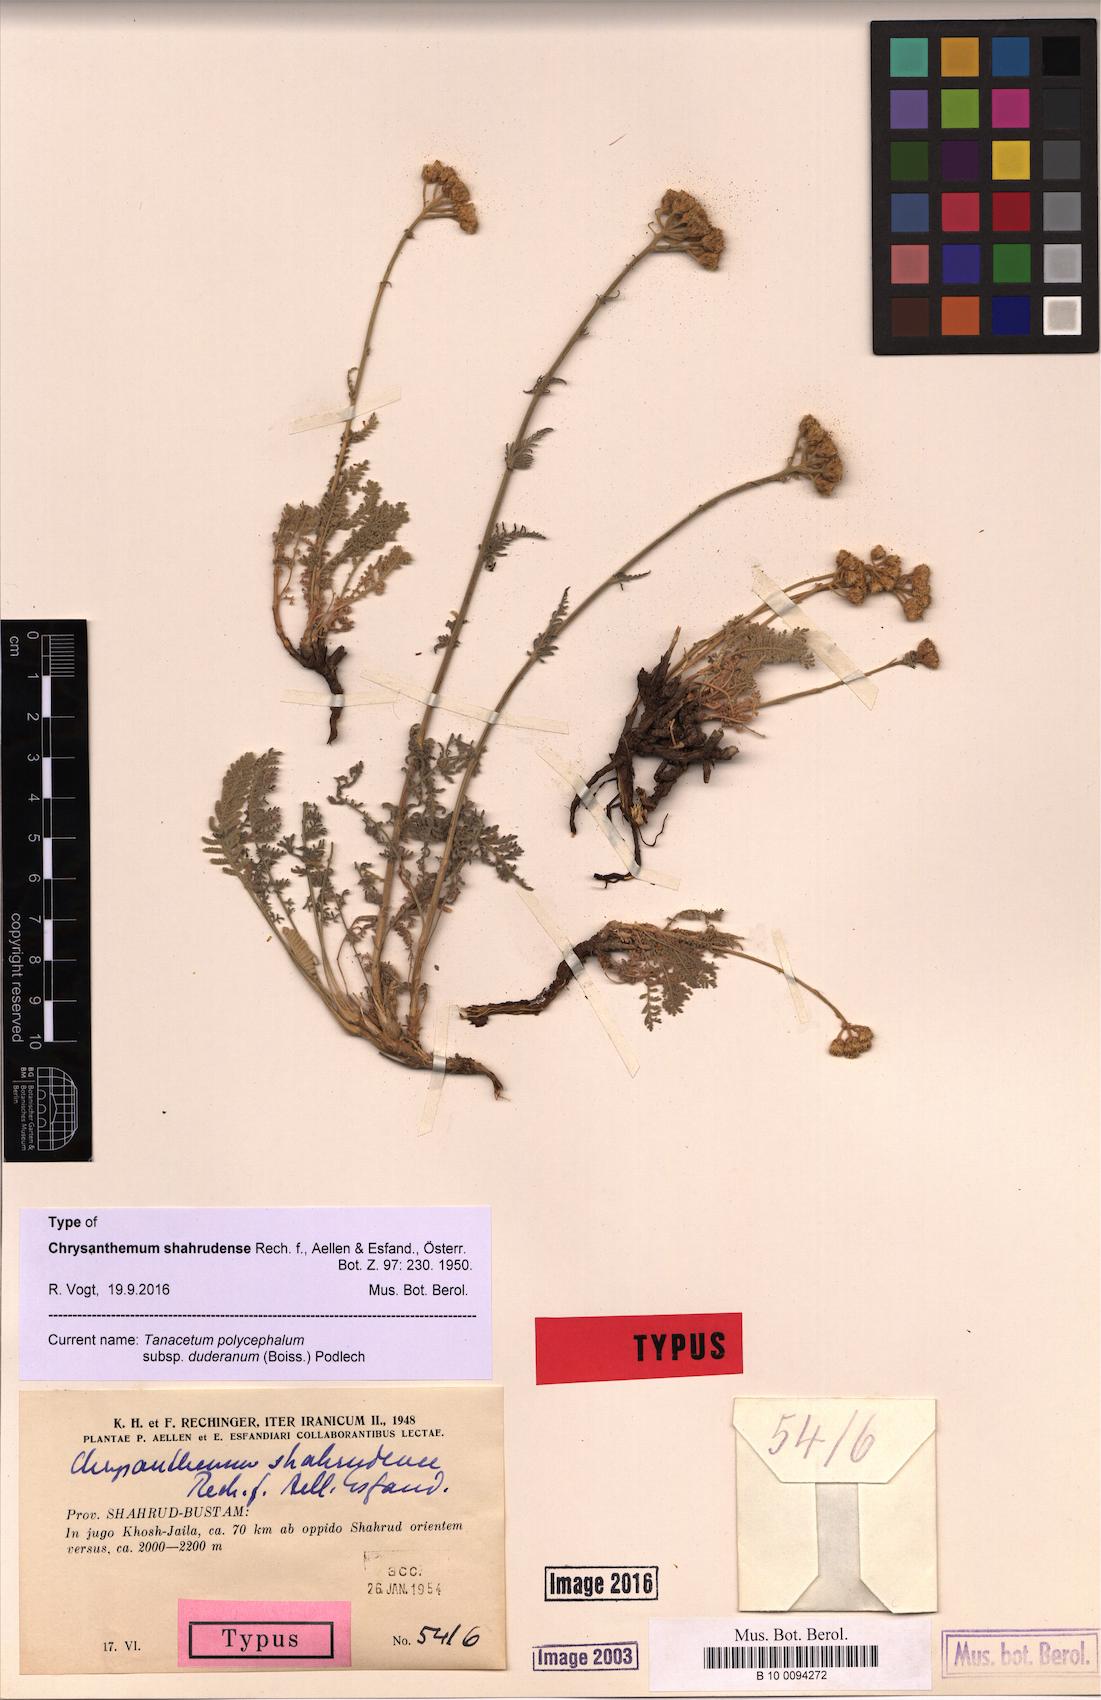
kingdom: Plantae
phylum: Tracheophyta
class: Magnoliopsida
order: Asterales
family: Asteraceae
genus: Tanacetum
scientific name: Tanacetum polycephalum
